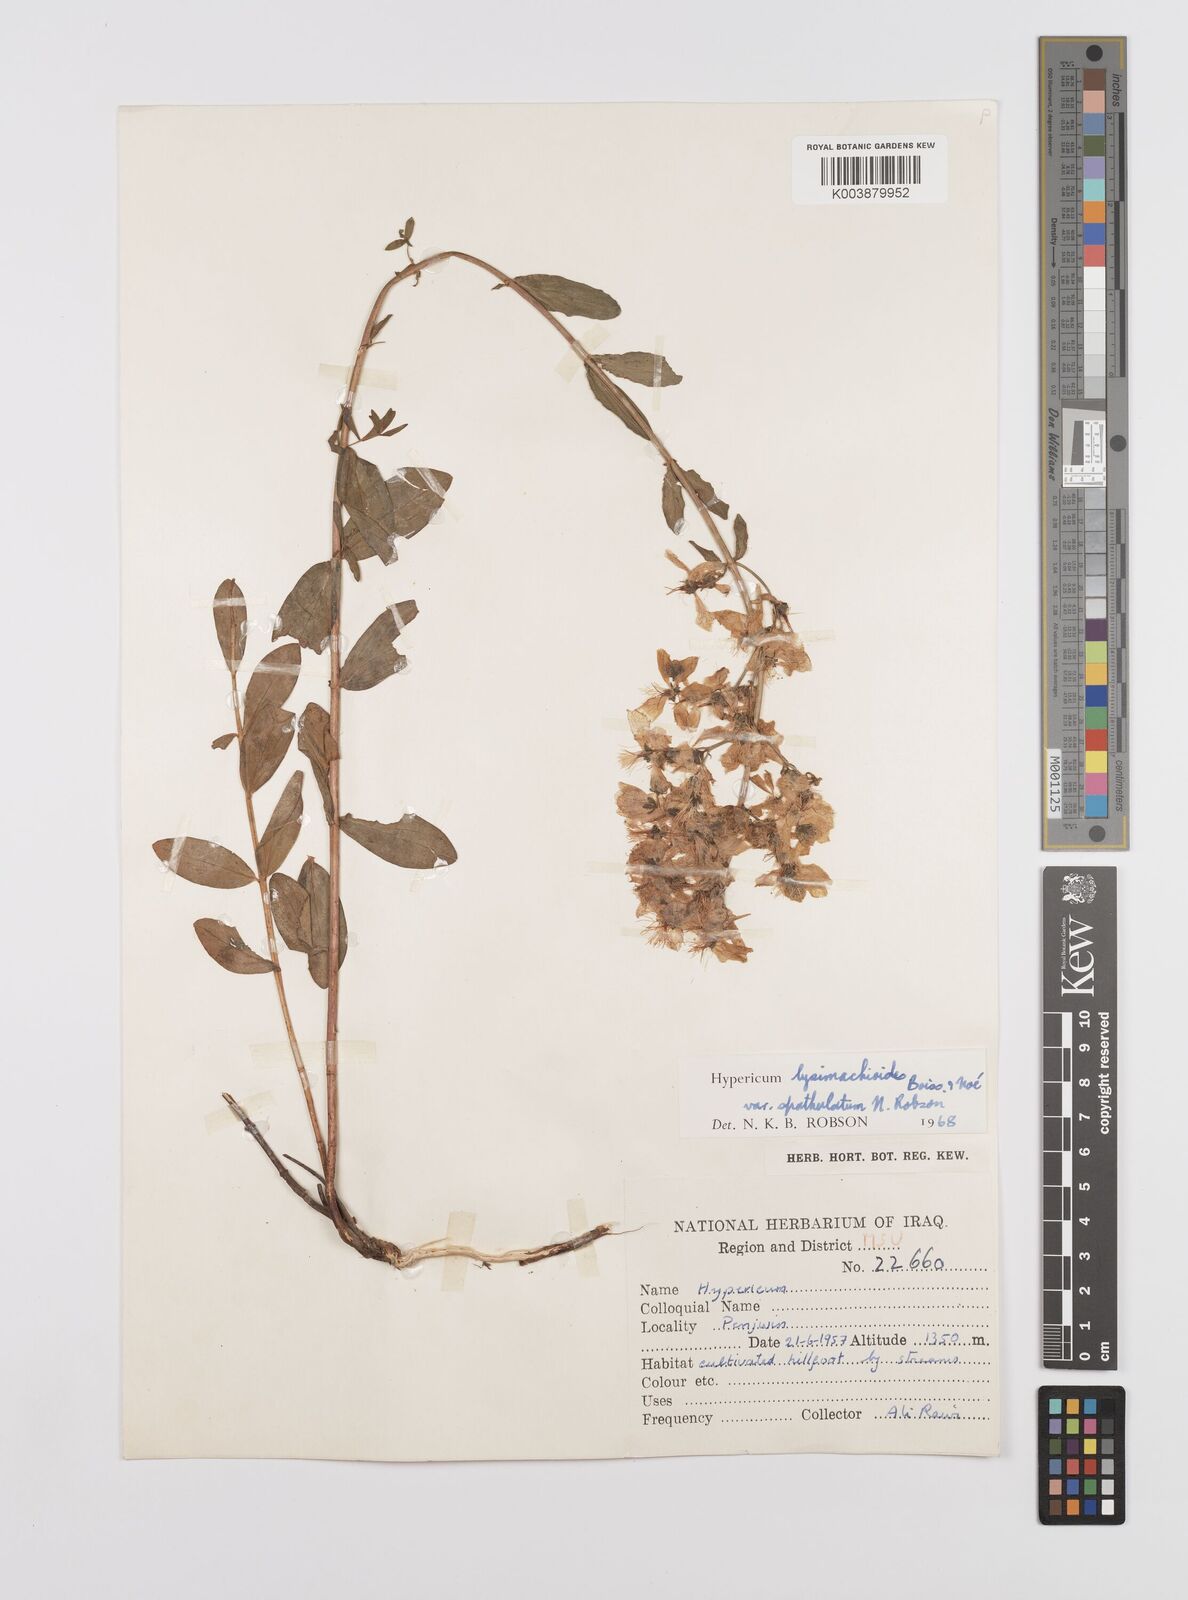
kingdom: Plantae
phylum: Tracheophyta
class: Magnoliopsida
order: Malpighiales
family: Hypericaceae
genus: Hypericum
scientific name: Hypericum lysimachioides
